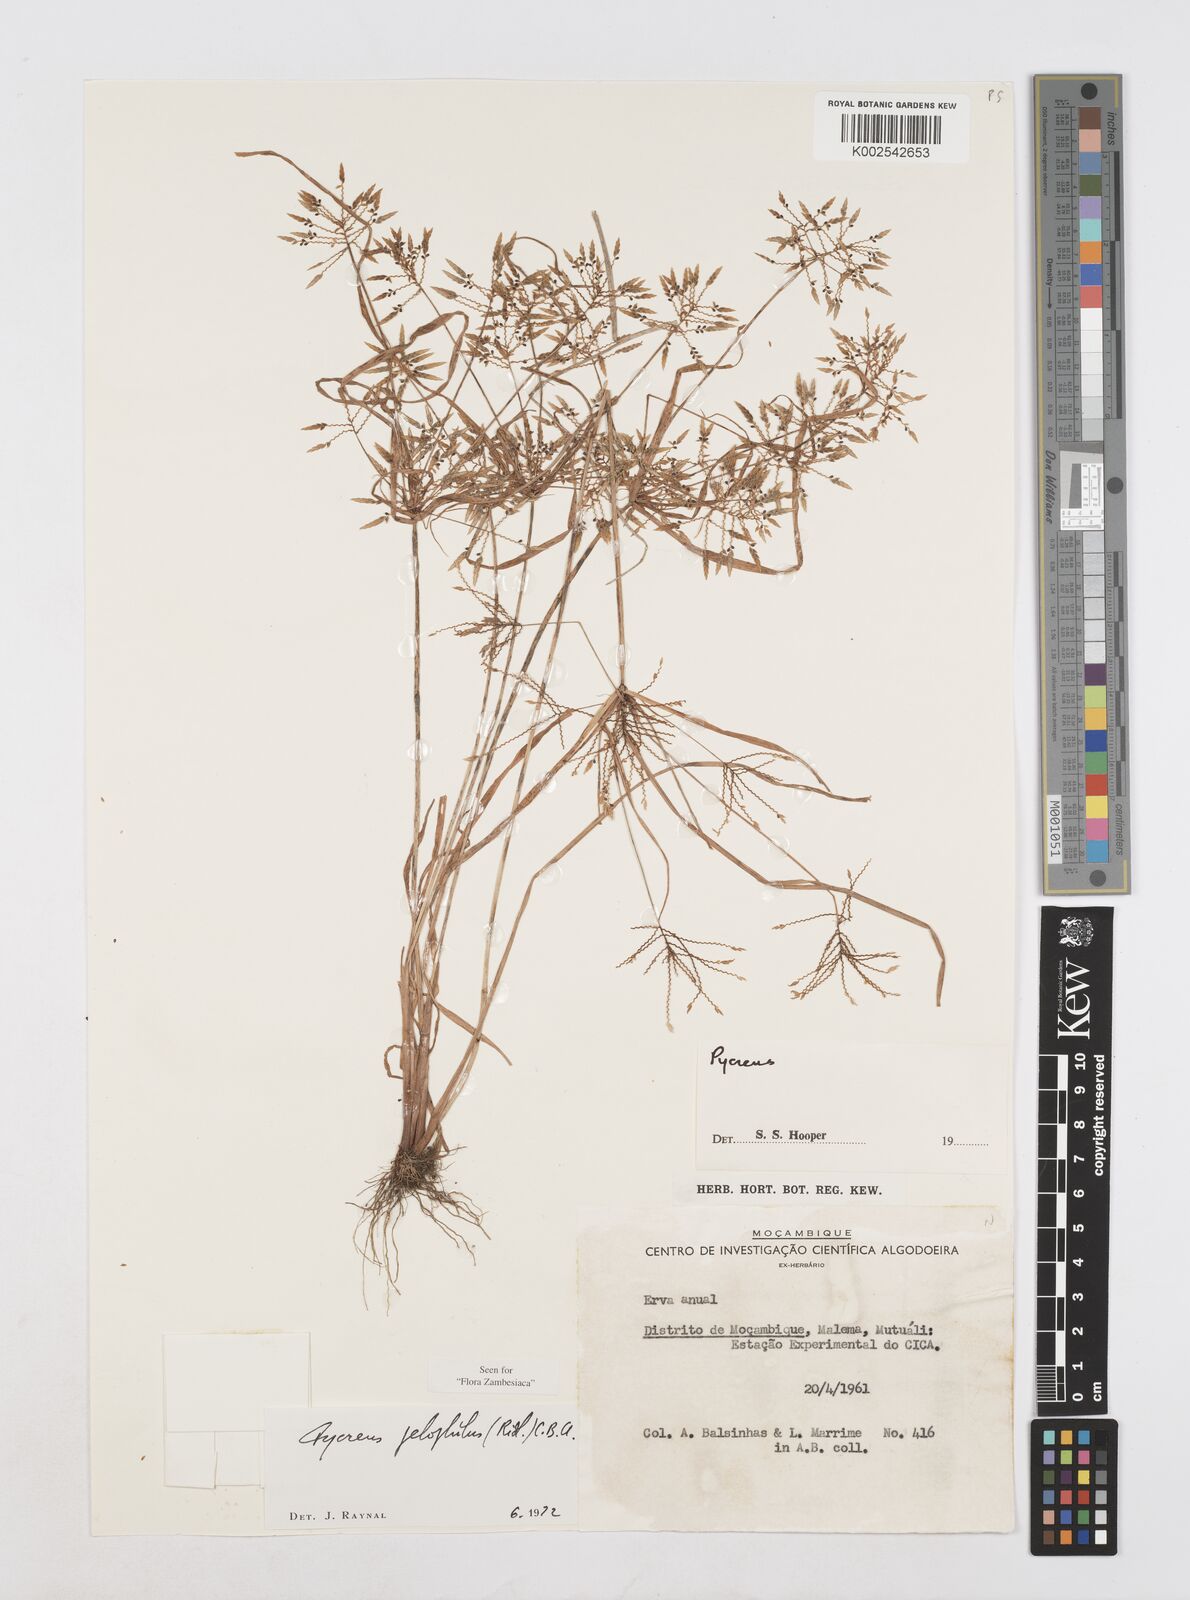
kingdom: Plantae
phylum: Tracheophyta
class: Liliopsida
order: Poales
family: Cyperaceae
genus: Cyperus
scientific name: Cyperus pelophilus
